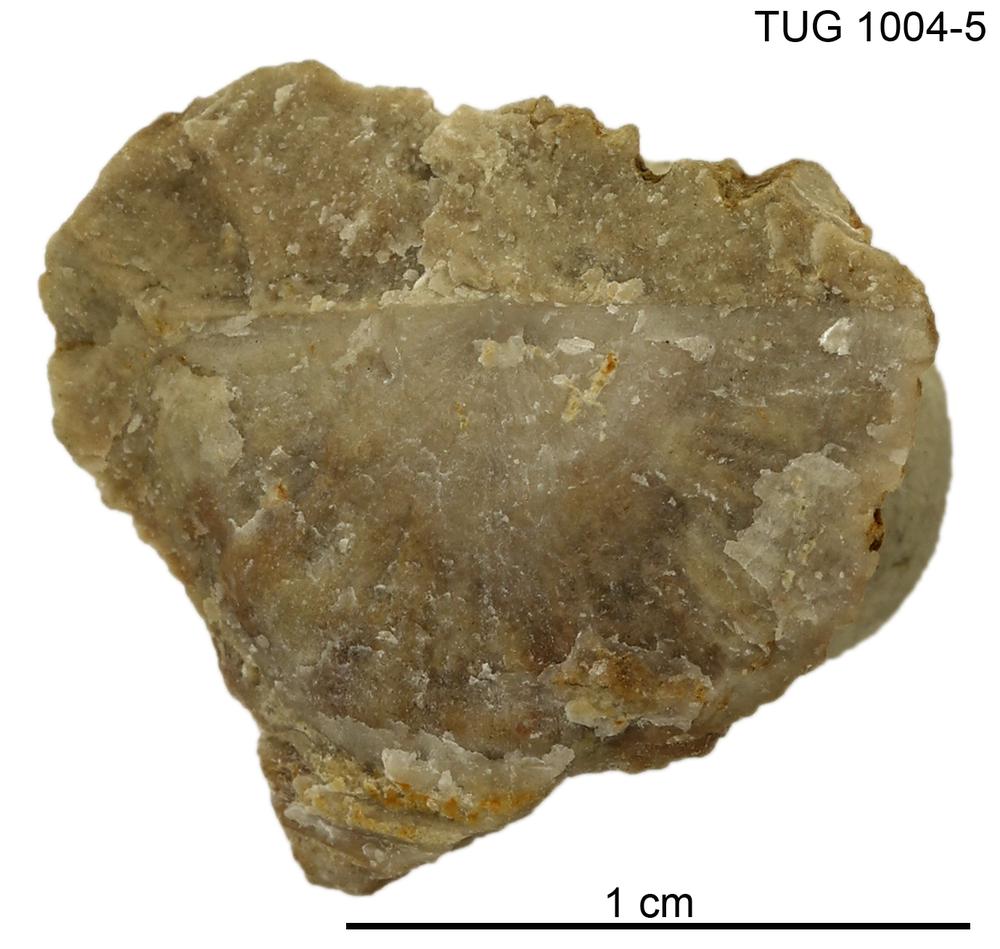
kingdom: Animalia
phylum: Brachiopoda
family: Strophomenidae
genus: Leptaena
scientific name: Leptaena
